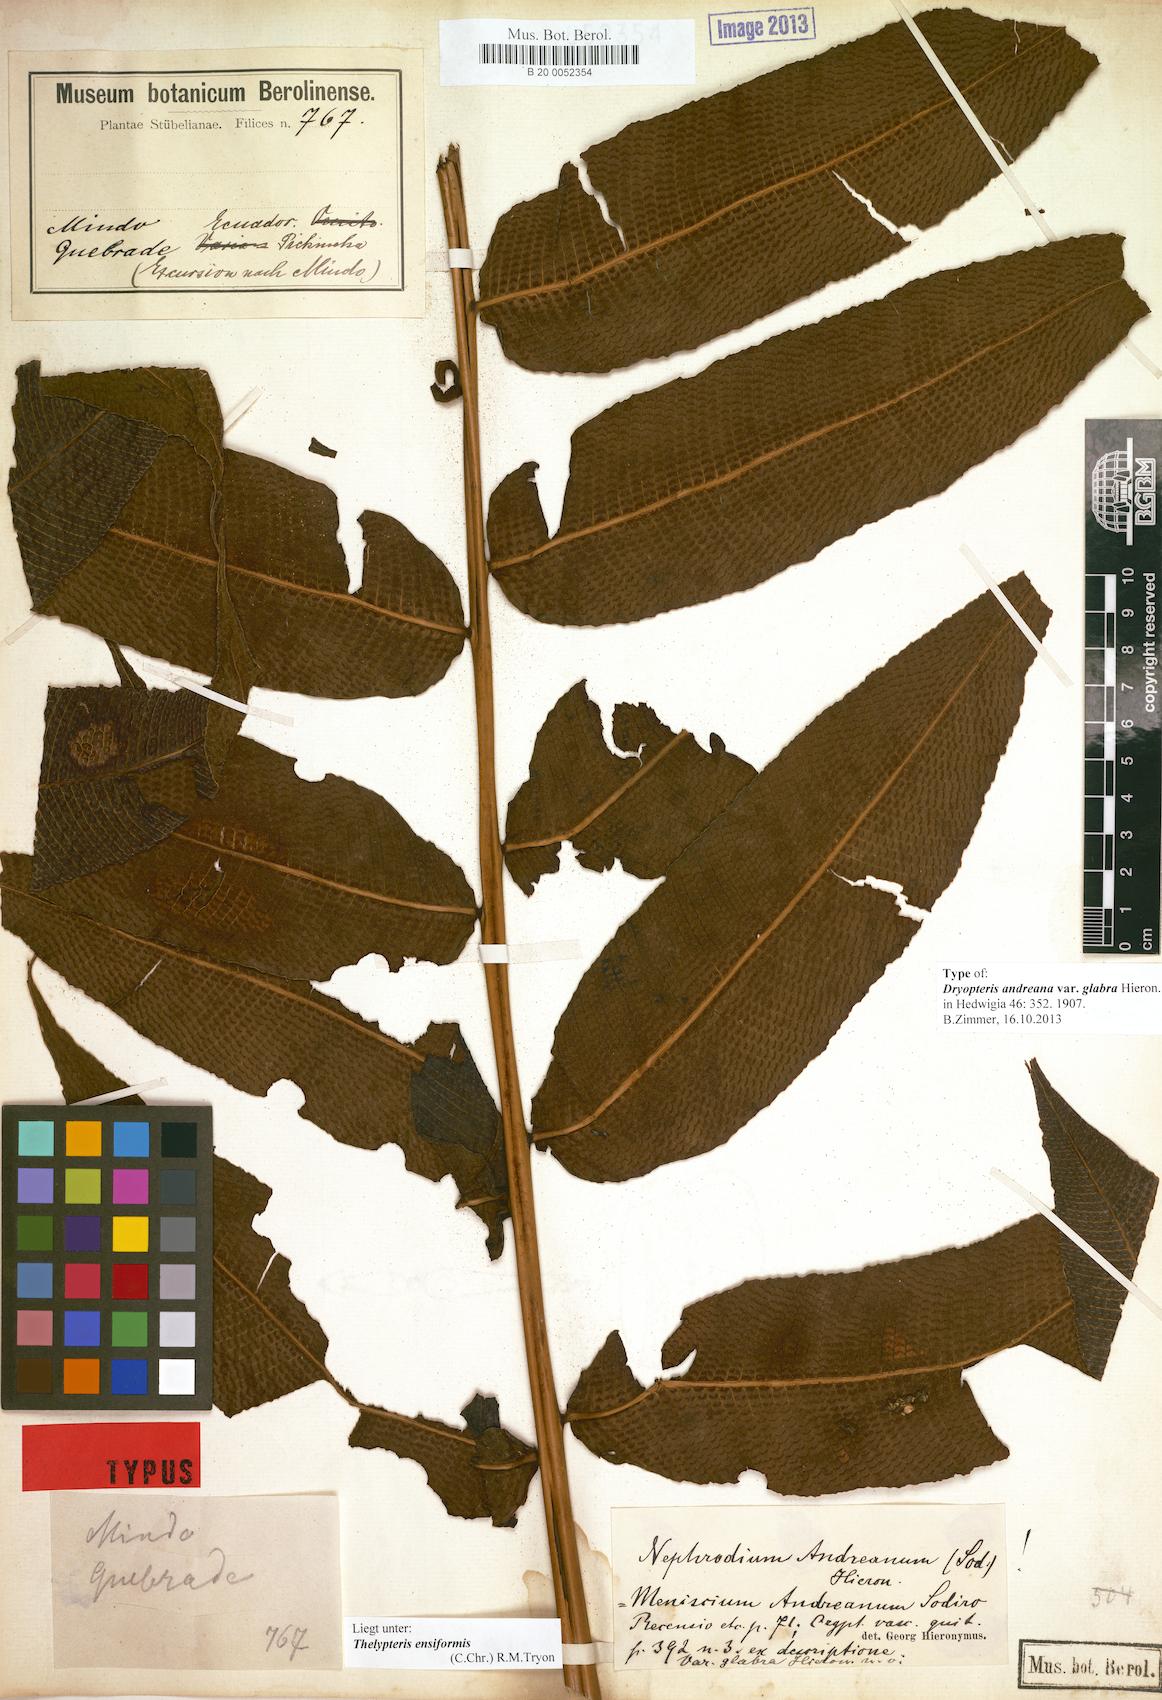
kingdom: Plantae
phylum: Tracheophyta
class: Polypodiopsida
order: Polypodiales
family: Thelypteridaceae
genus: Meniscium
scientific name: Meniscium andreanum
